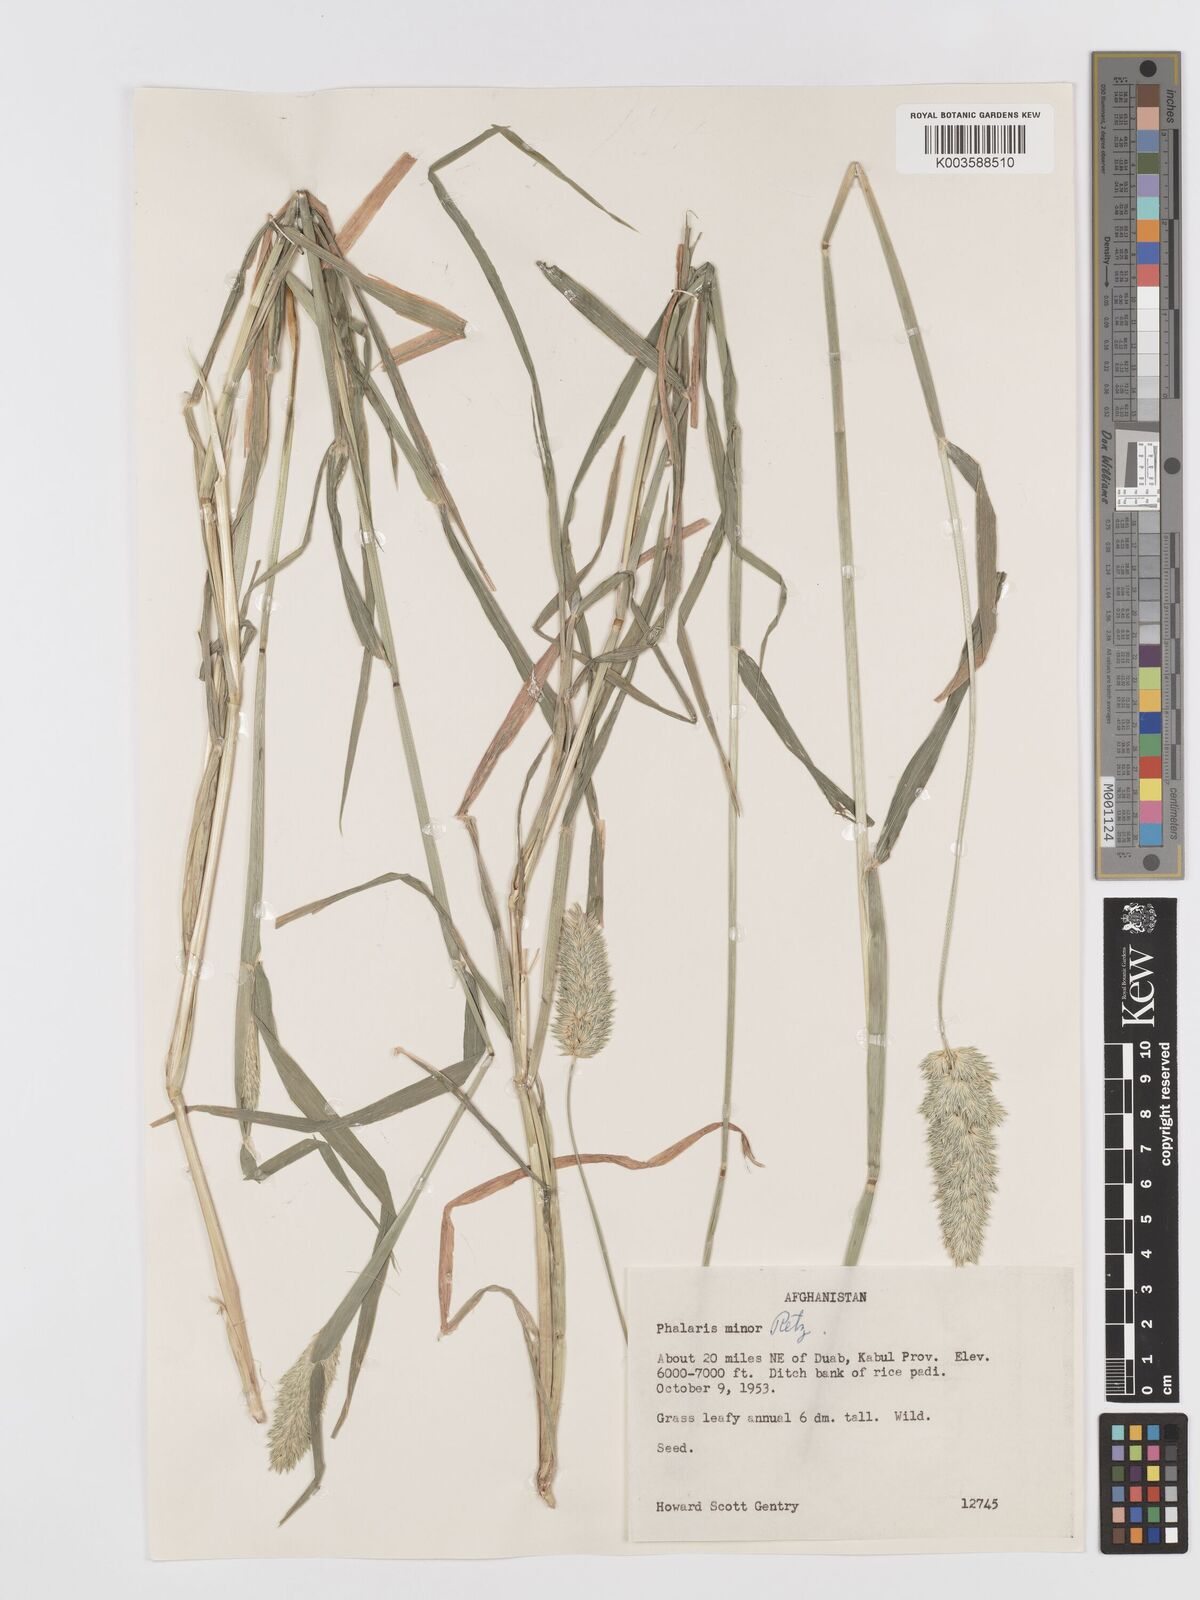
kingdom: Plantae
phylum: Tracheophyta
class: Liliopsida
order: Poales
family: Poaceae
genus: Phalaris
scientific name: Phalaris minor
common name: Littleseed canarygrass
